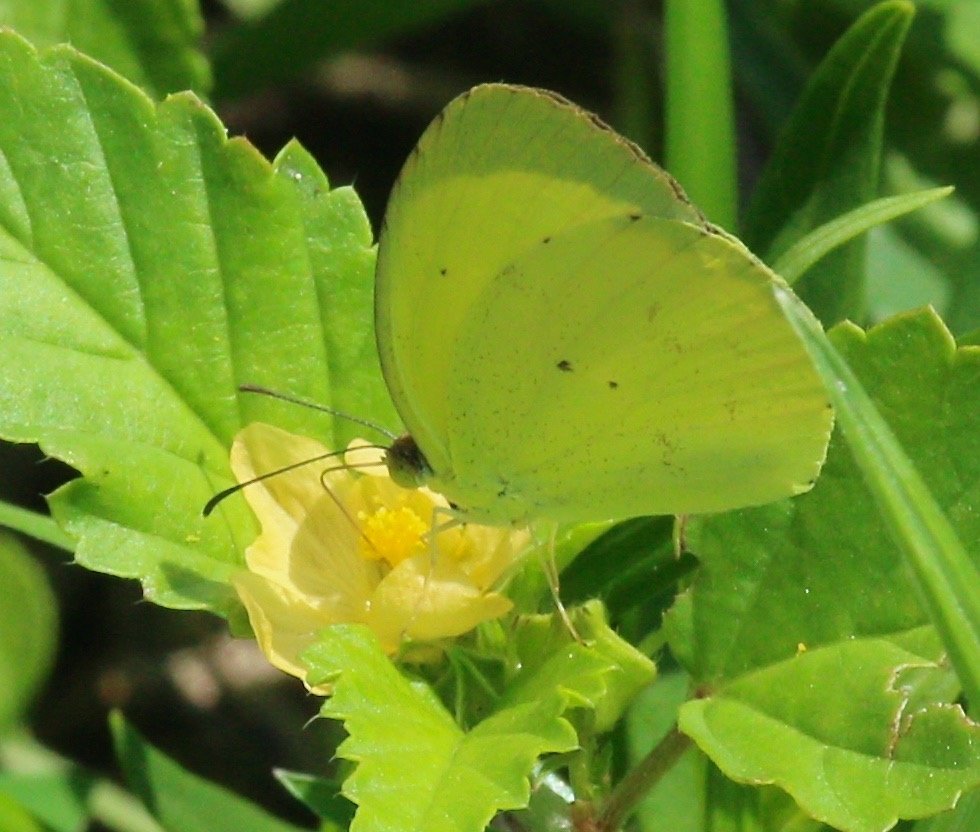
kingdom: Animalia
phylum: Arthropoda
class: Insecta
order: Lepidoptera
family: Pieridae
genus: Pyrisitia
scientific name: Pyrisitia nise
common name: Mimosa Yellow
